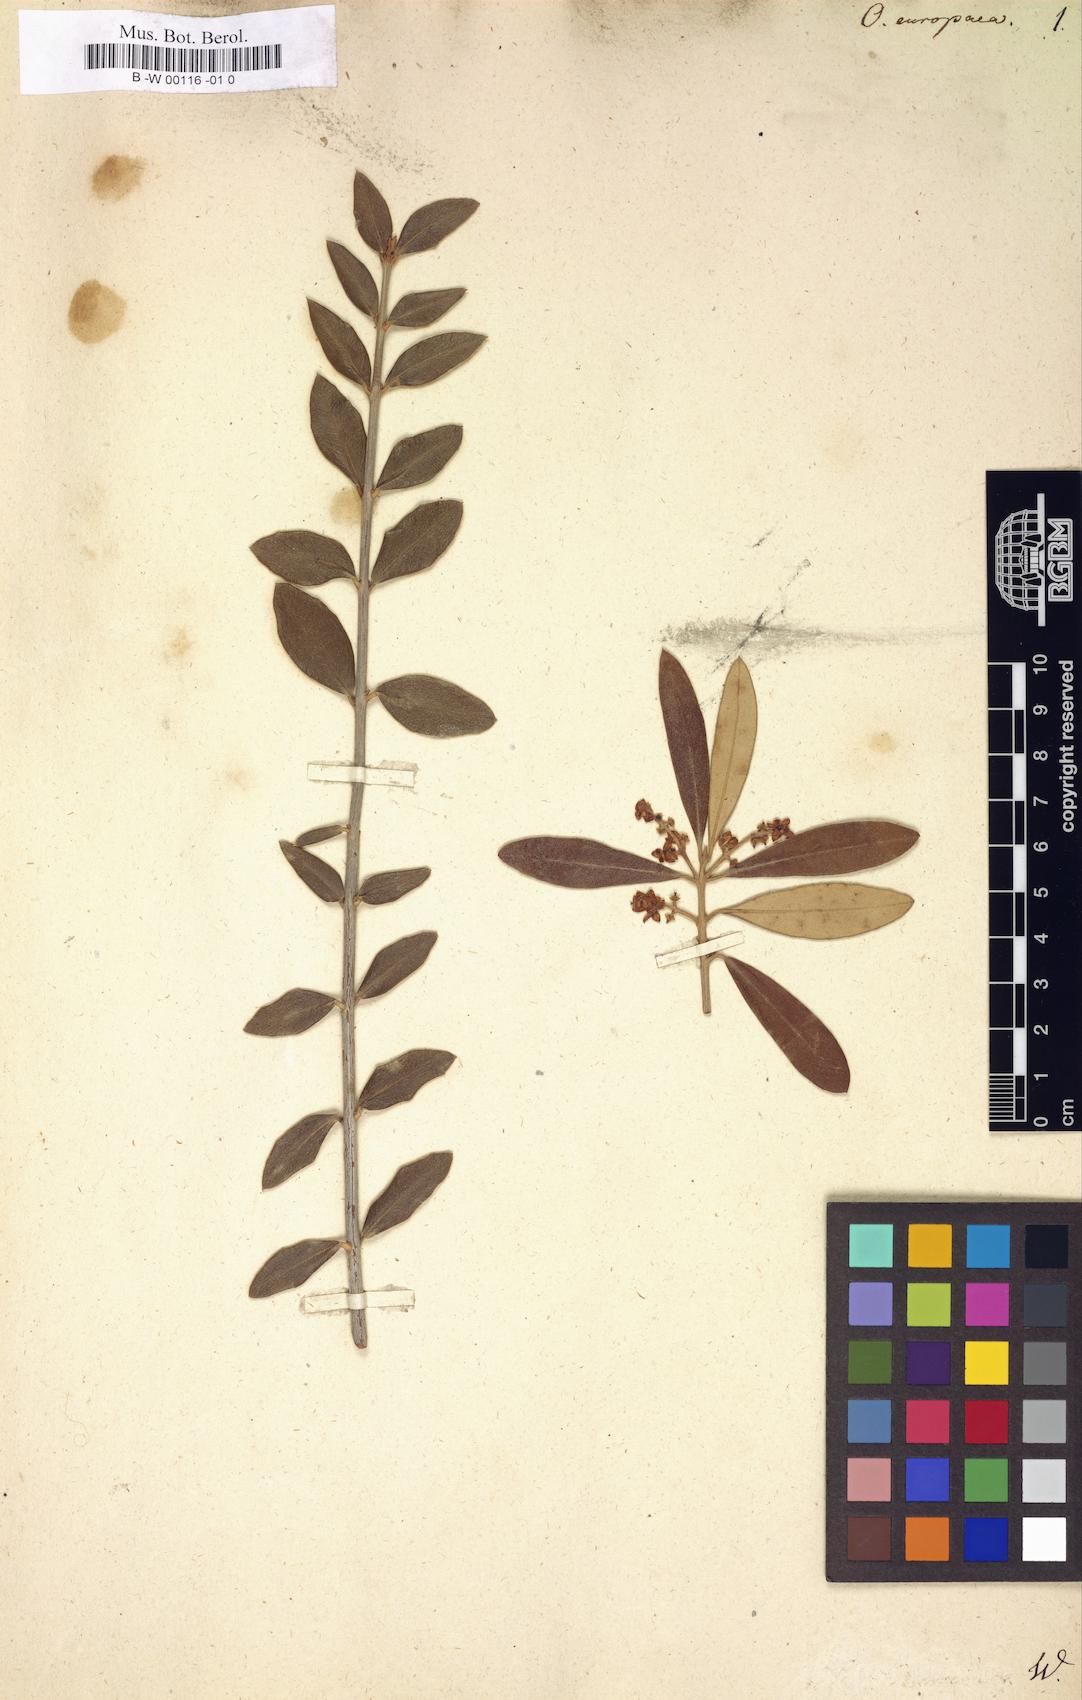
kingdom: Plantae
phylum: Tracheophyta
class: Magnoliopsida
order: Lamiales
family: Oleaceae
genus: Olea
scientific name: Olea europaea
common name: Olive
